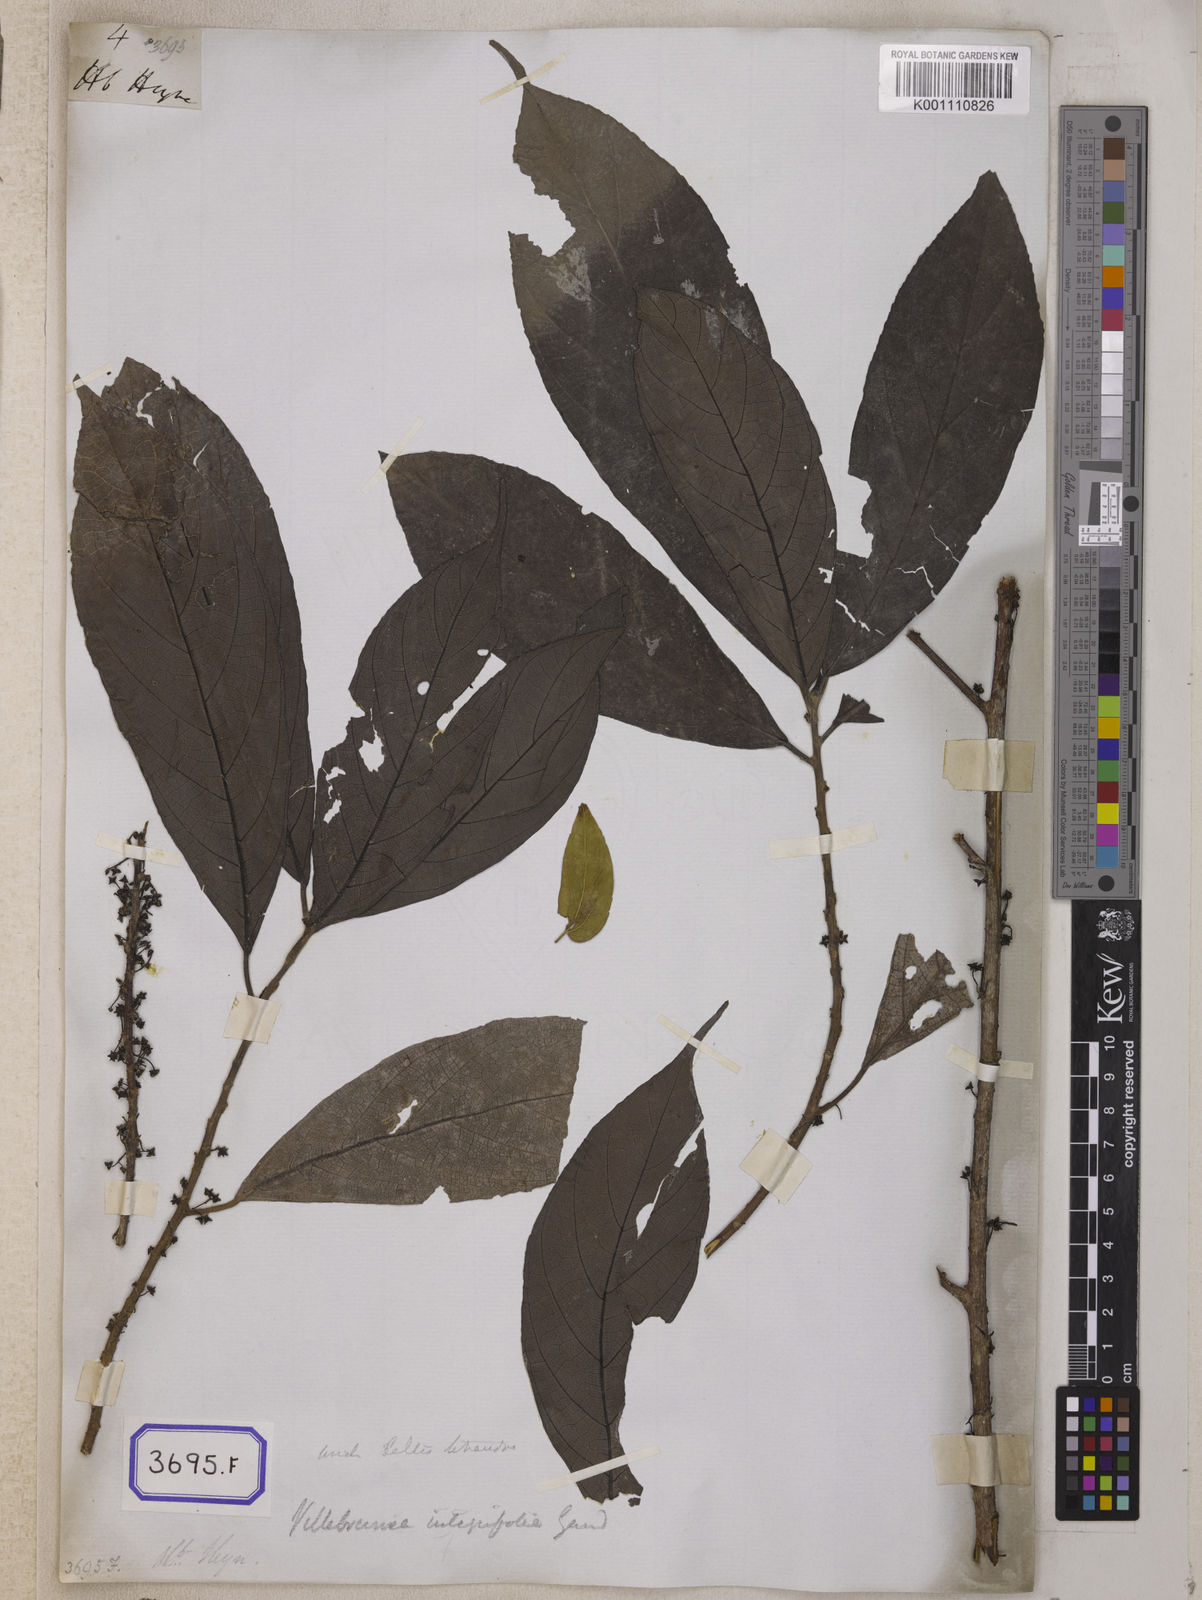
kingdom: Plantae
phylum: Tracheophyta
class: Magnoliopsida
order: Rosales
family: Cannabaceae
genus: Celtis
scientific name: Celtis
